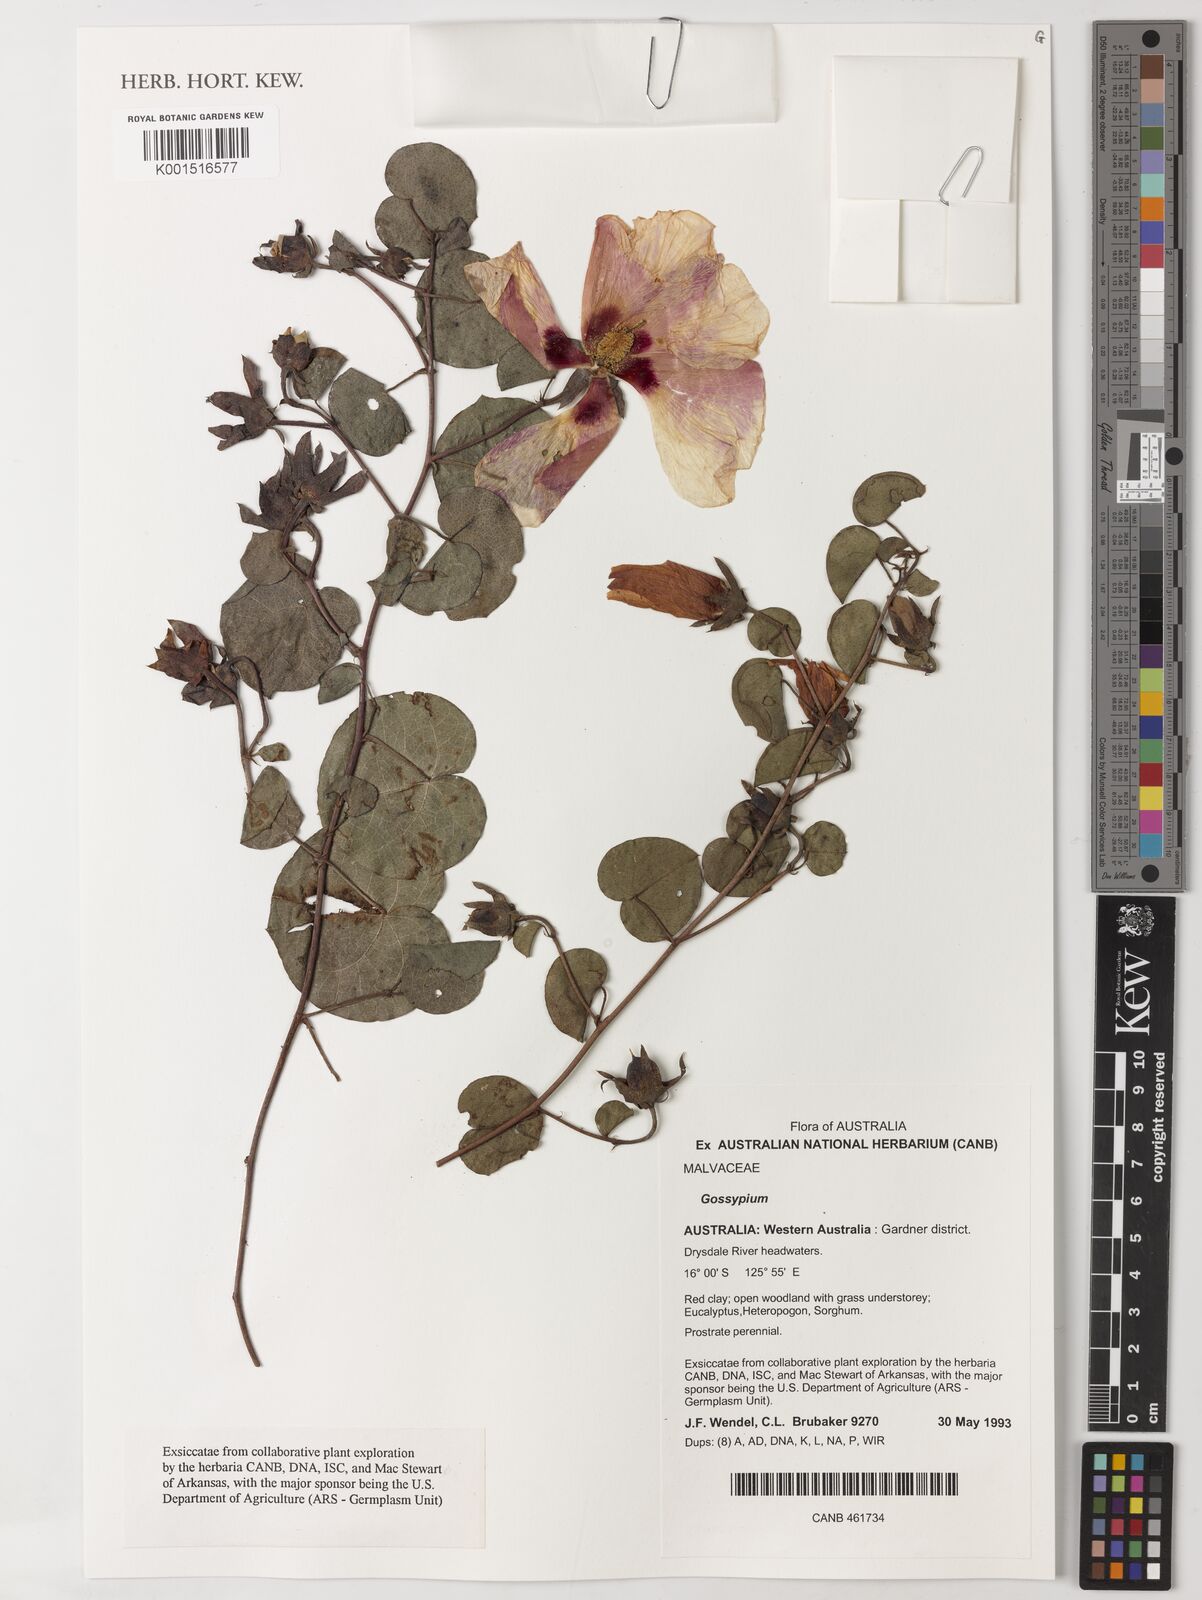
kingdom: Plantae
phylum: Tracheophyta
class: Magnoliopsida
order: Malvales
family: Malvaceae
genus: Gossypium
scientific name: Gossypium
